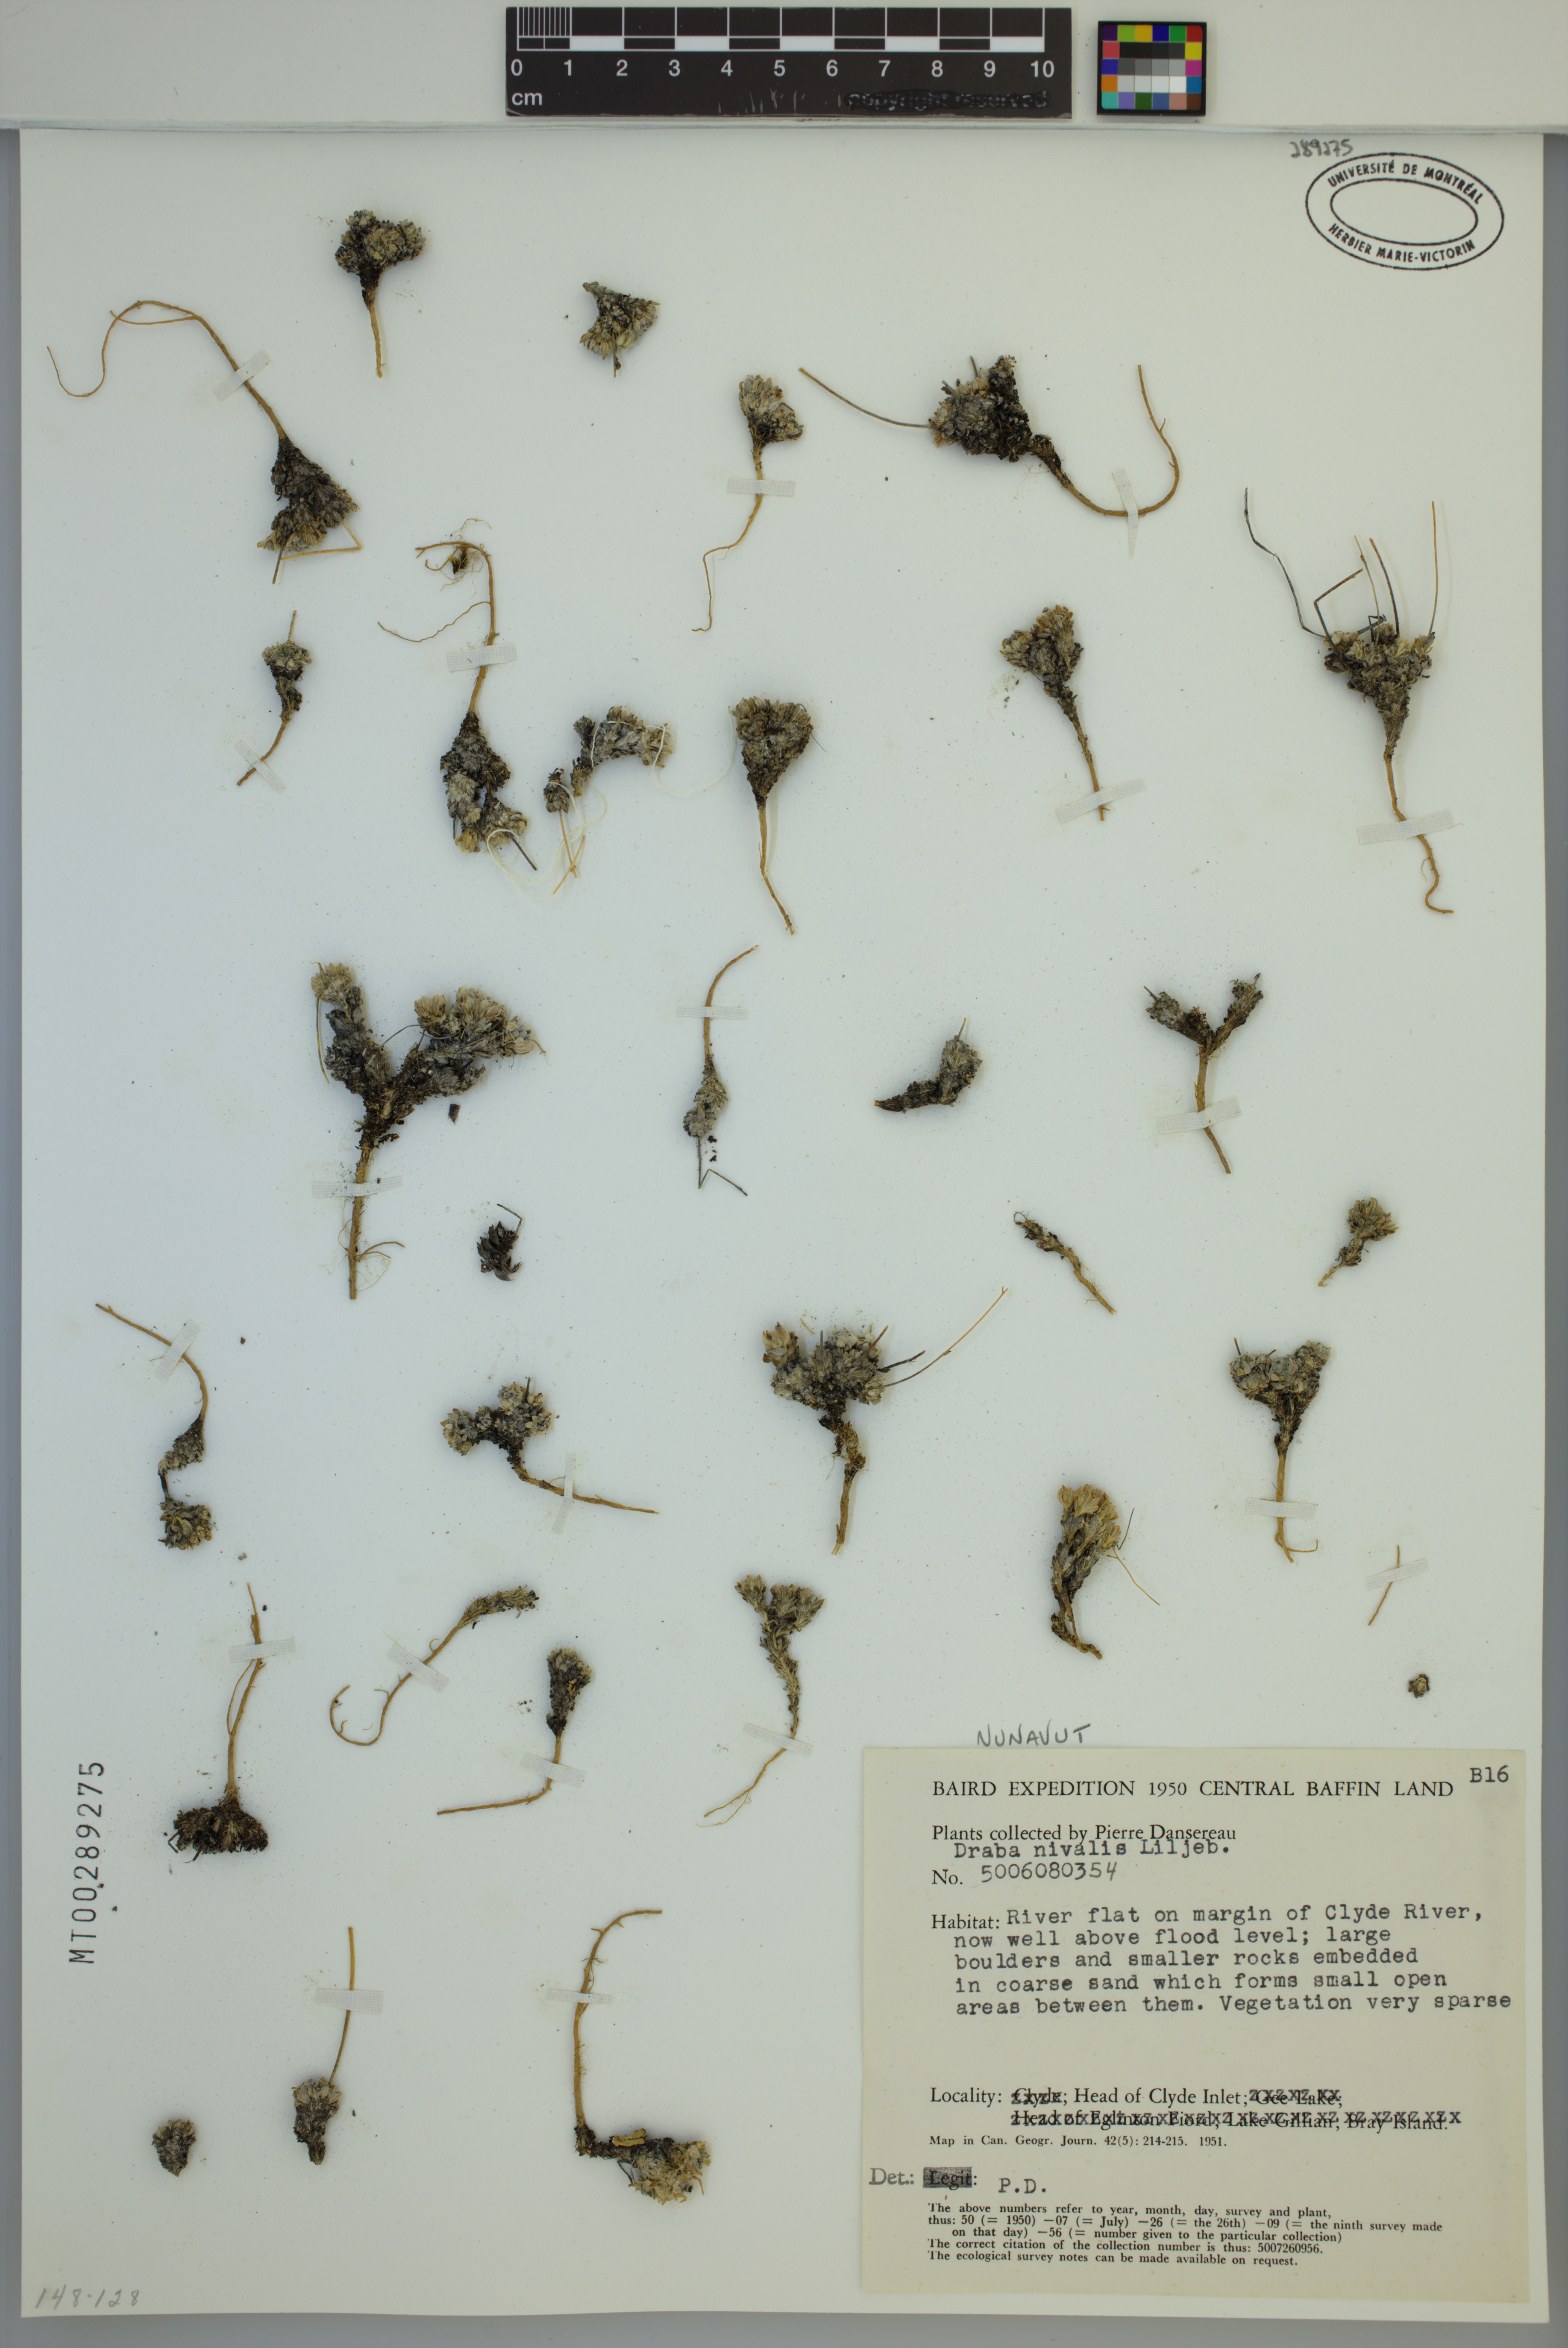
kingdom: Plantae
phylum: Tracheophyta
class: Magnoliopsida
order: Brassicales
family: Brassicaceae
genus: Draba
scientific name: Draba nivalis
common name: Snow draba
